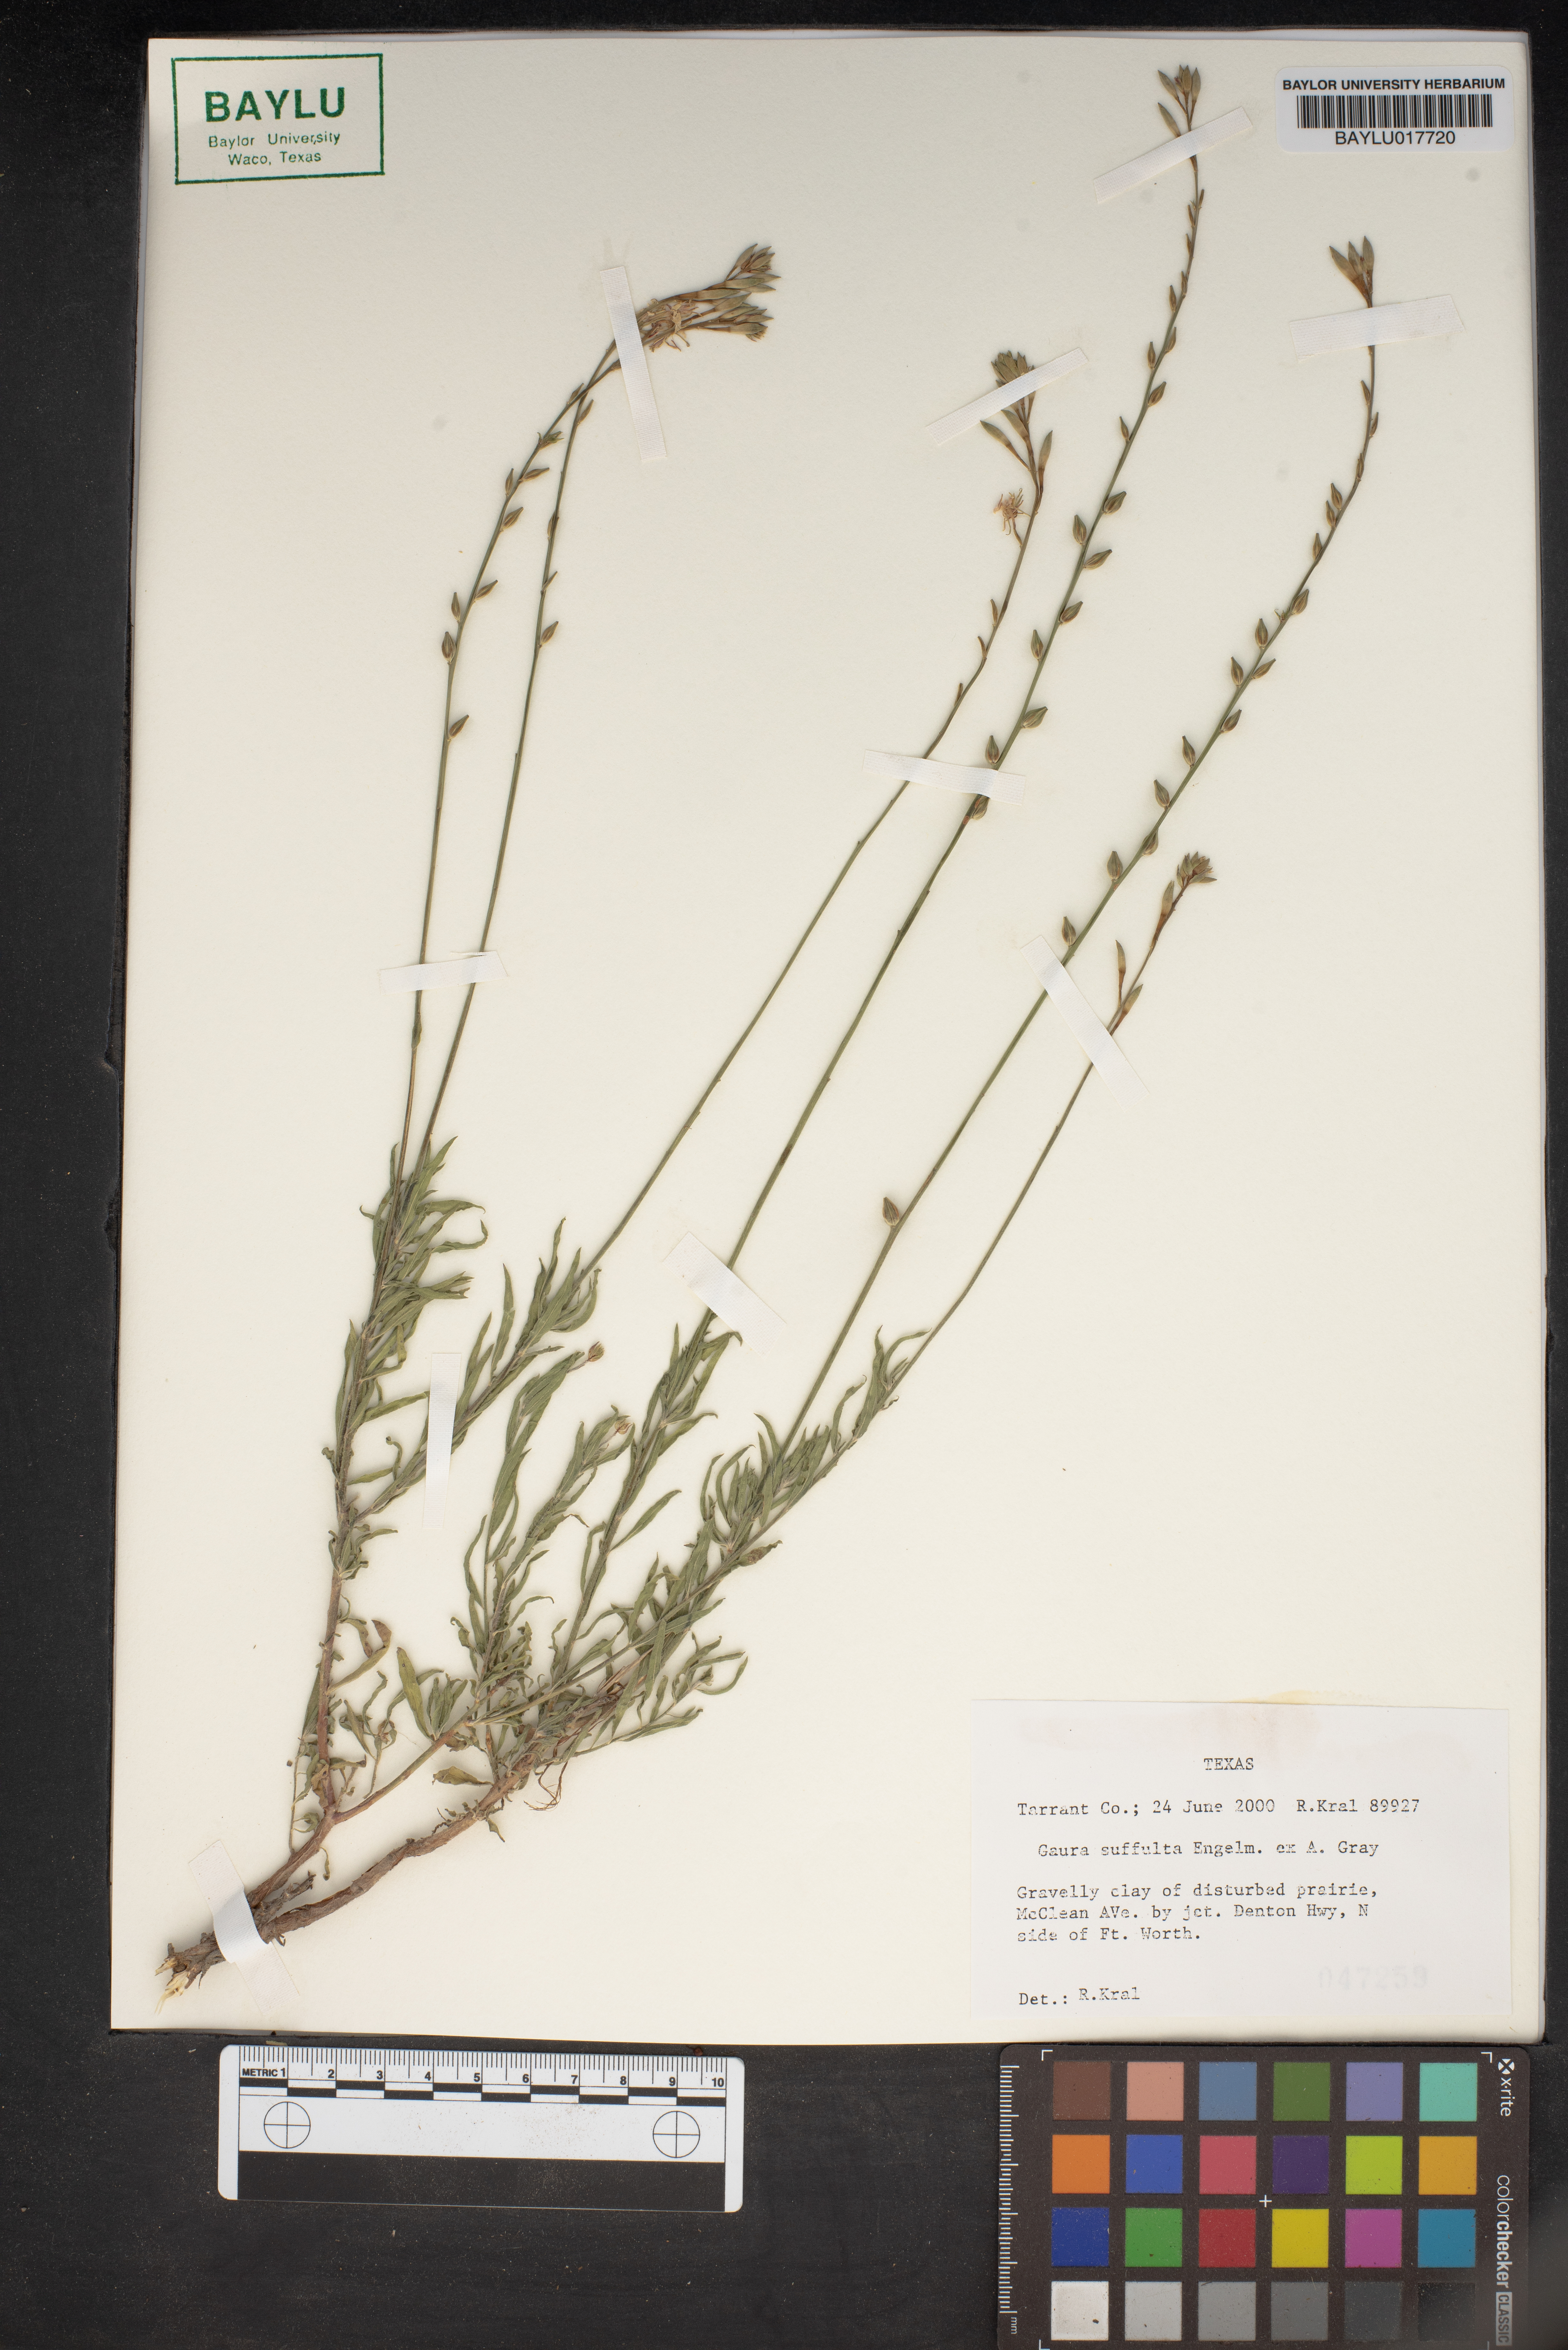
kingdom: Plantae
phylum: Tracheophyta
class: Magnoliopsida
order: Myrtales
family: Onagraceae
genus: Oenothera
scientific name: Oenothera Gaura suffulta
